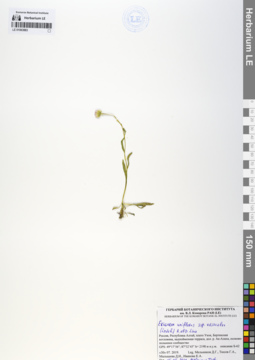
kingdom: Plantae
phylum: Tracheophyta
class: Magnoliopsida
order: Asterales
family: Asteraceae
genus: Erigeron
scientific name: Erigeron eriocalyx
